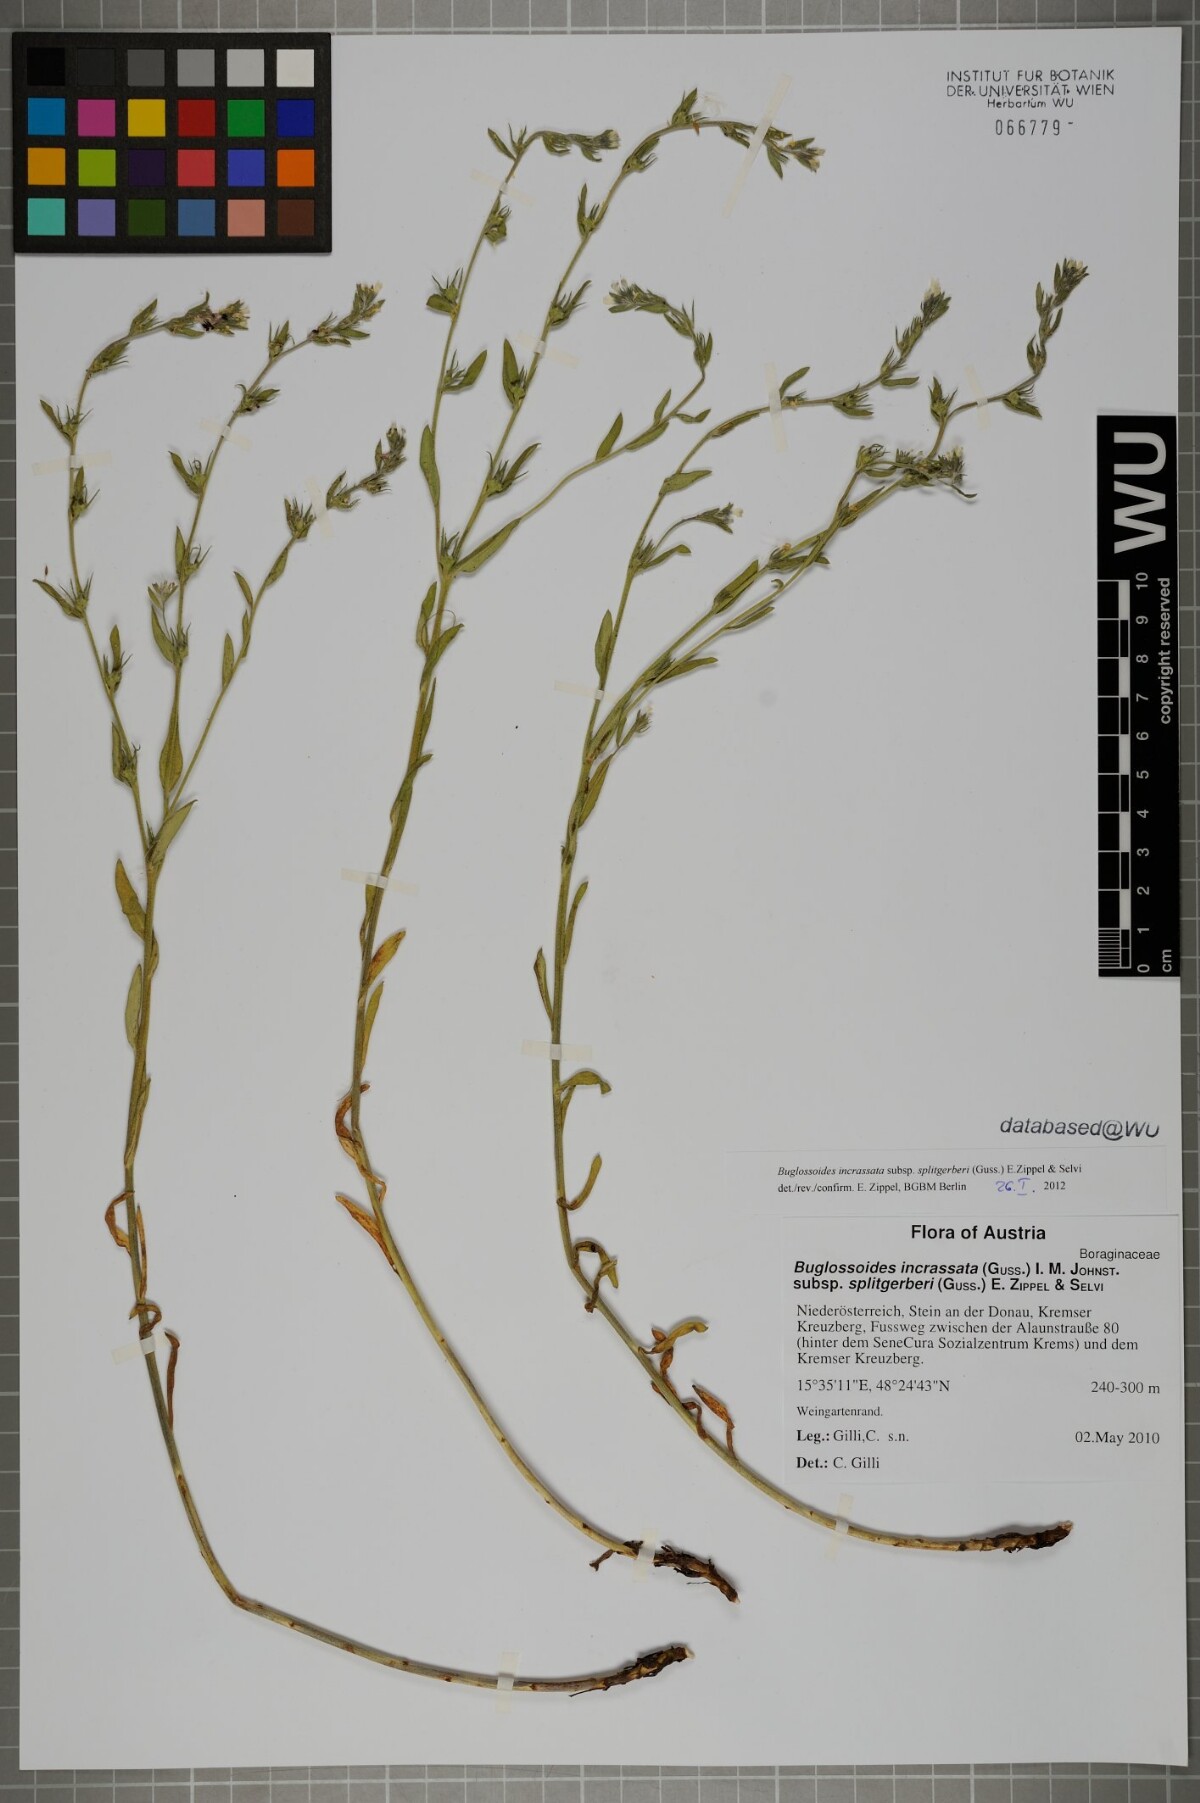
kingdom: Plantae
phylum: Tracheophyta
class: Magnoliopsida
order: Boraginales
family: Boraginaceae
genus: Buglossoides
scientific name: Buglossoides incrassata
